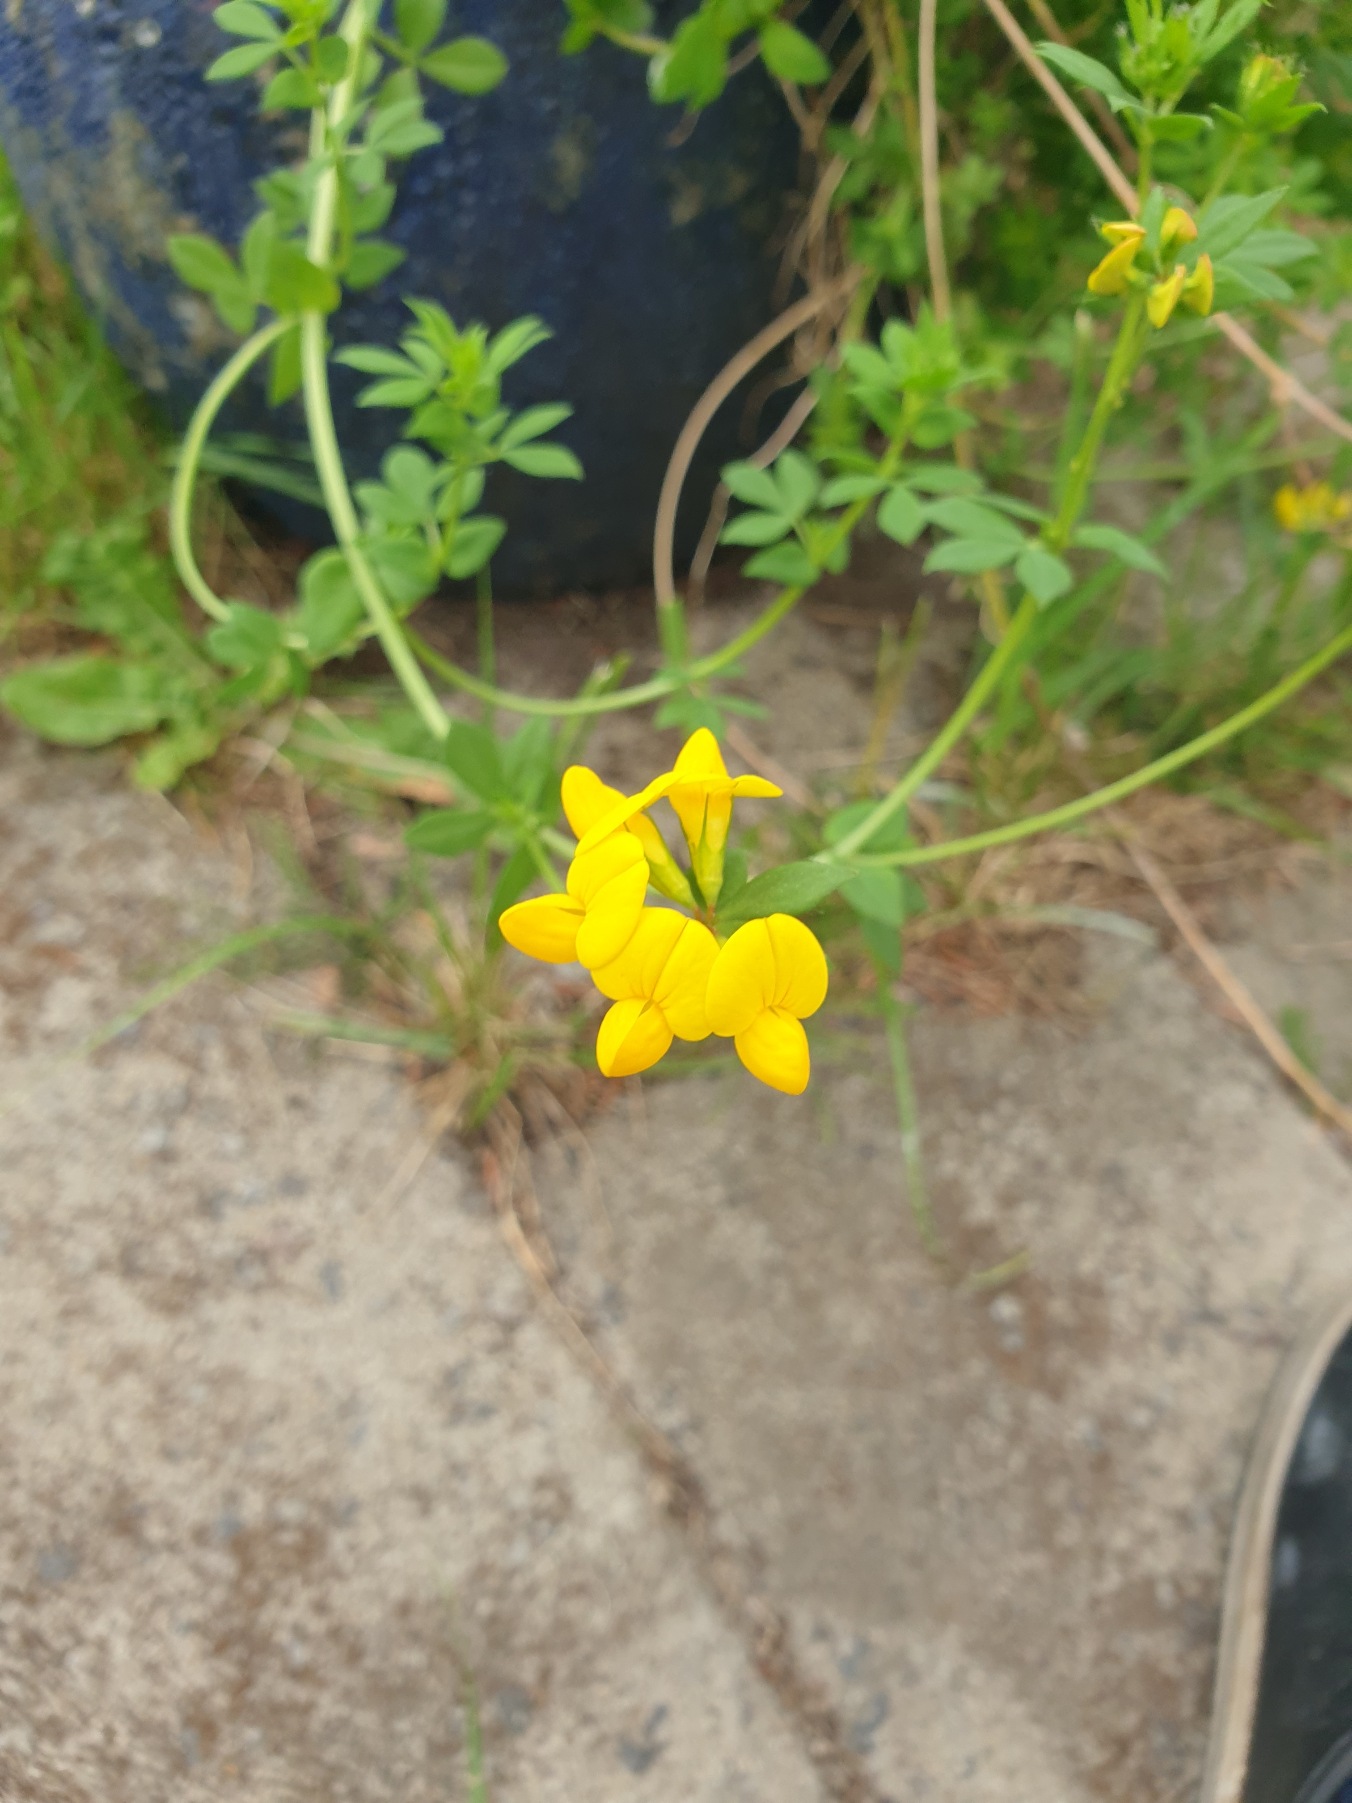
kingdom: Plantae
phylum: Tracheophyta
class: Magnoliopsida
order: Fabales
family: Fabaceae
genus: Lotus
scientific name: Lotus corniculatus
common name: Almindelig kællingetand
